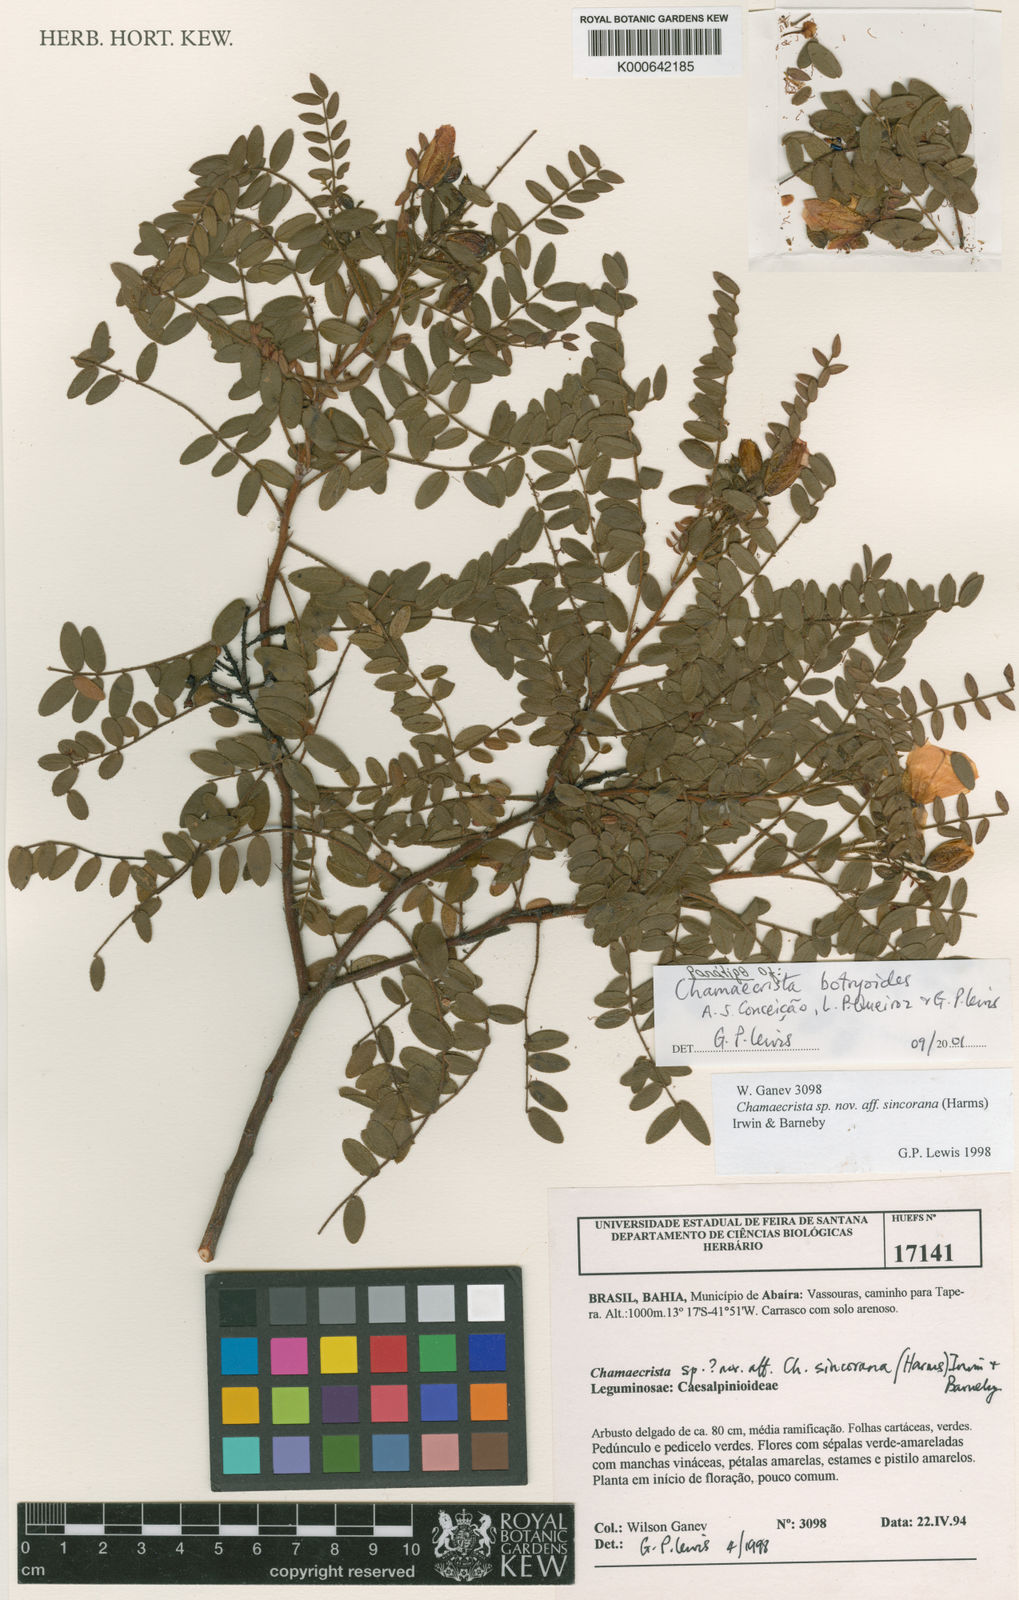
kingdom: Plantae
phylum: Tracheophyta
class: Magnoliopsida
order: Fabales
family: Fabaceae
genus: Chamaecrista
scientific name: Chamaecrista botryoides
